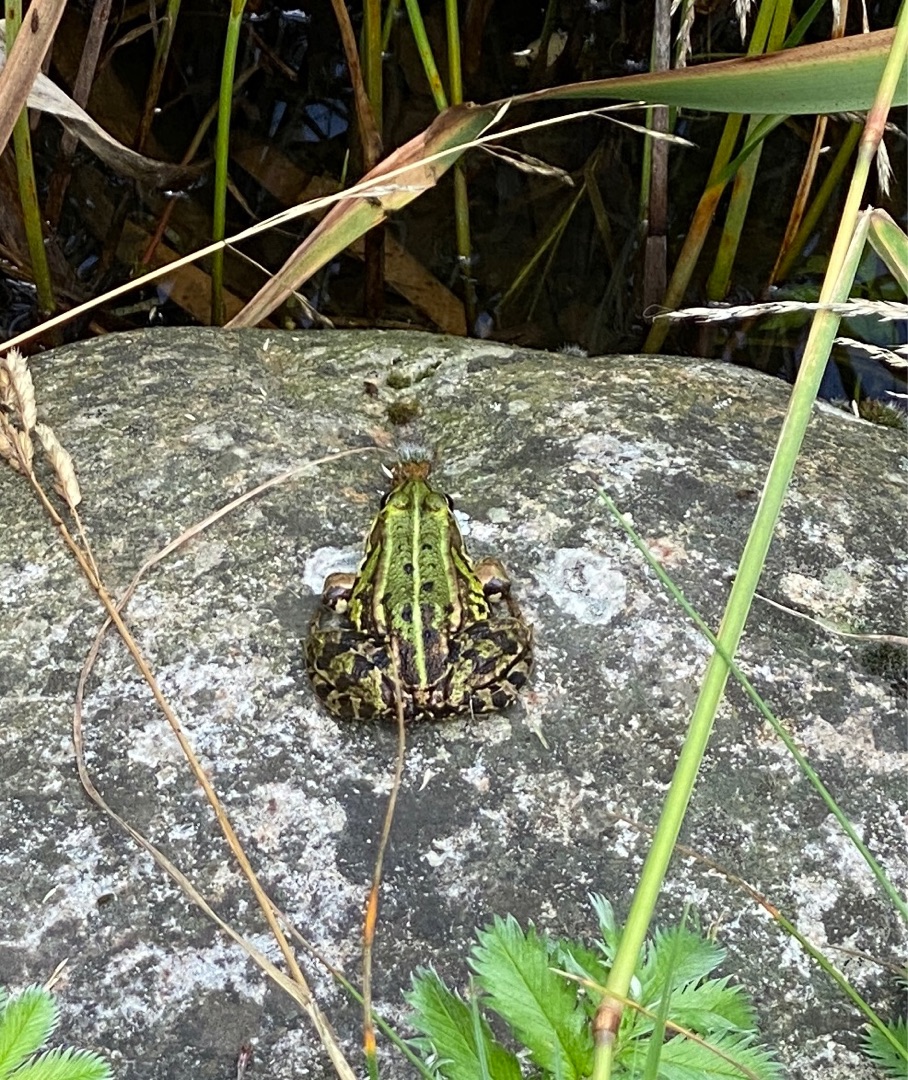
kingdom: Animalia
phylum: Chordata
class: Amphibia
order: Anura
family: Ranidae
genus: Pelophylax
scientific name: Pelophylax lessonae
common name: Grøn frø
